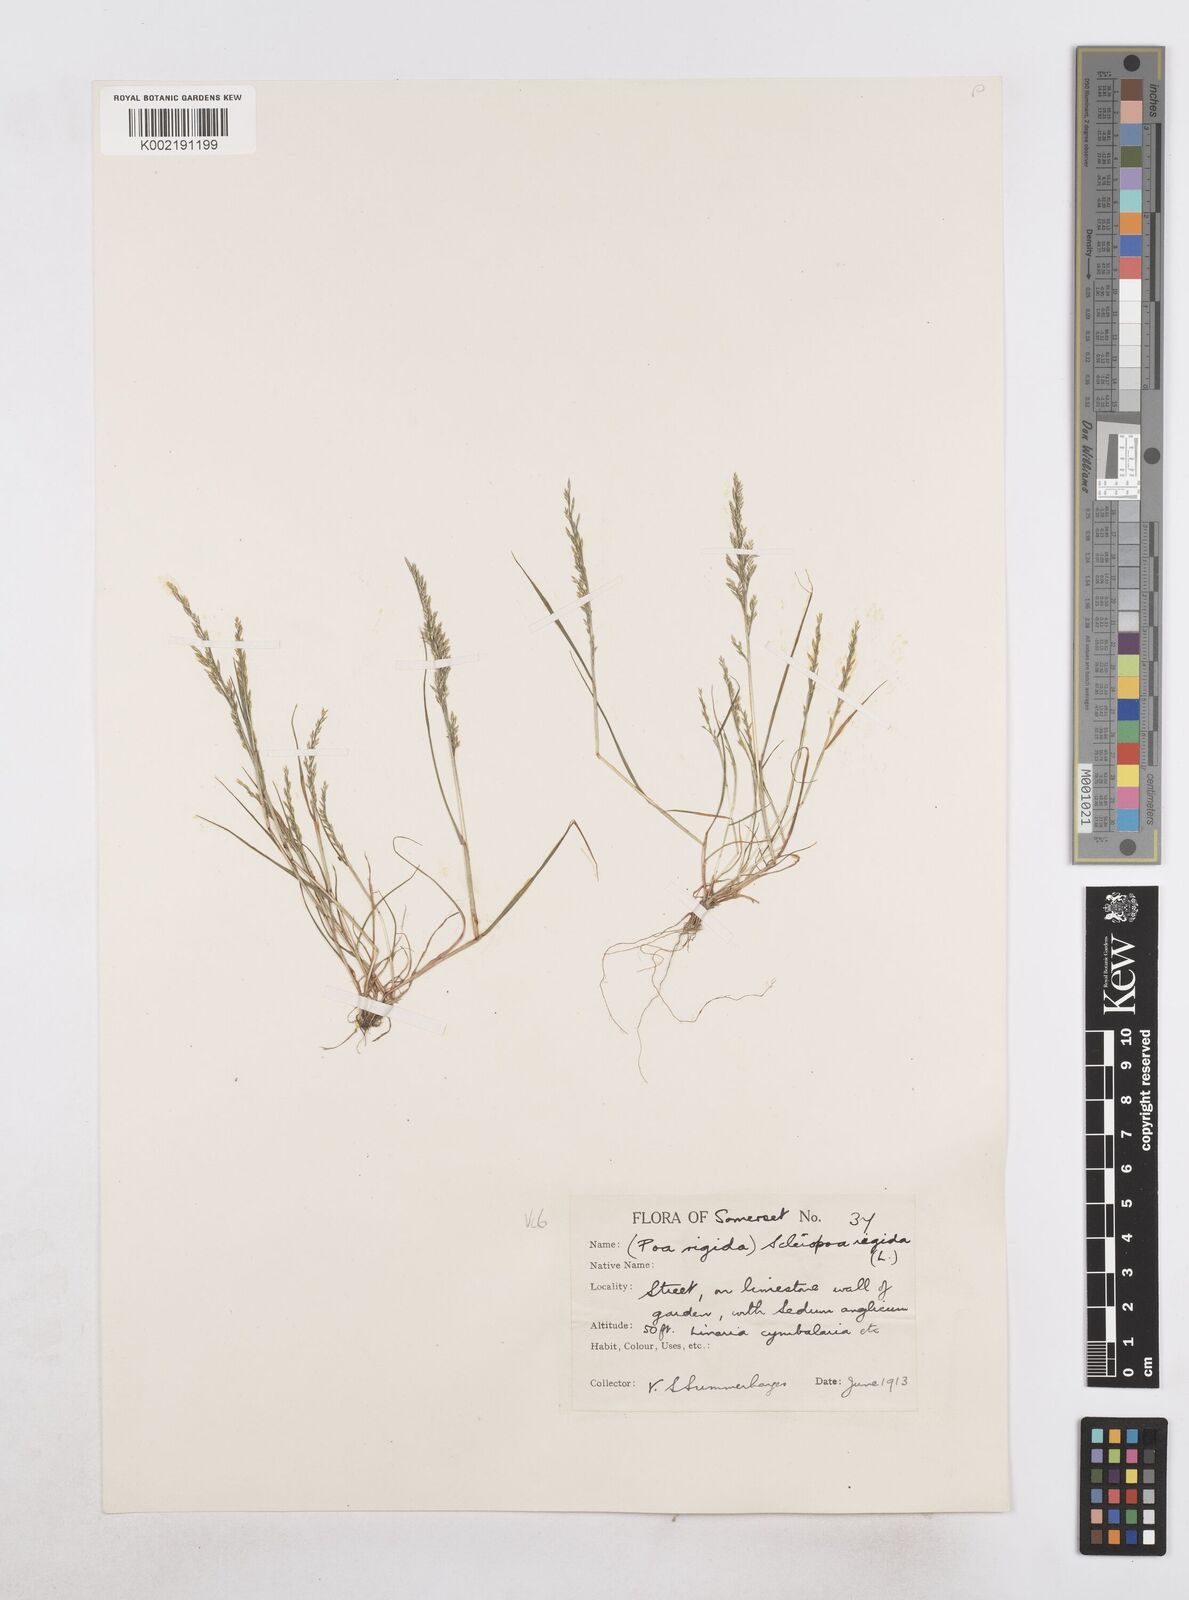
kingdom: Plantae
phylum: Tracheophyta
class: Liliopsida
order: Poales
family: Poaceae
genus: Catapodium
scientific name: Catapodium rigidum
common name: Fern-grass
